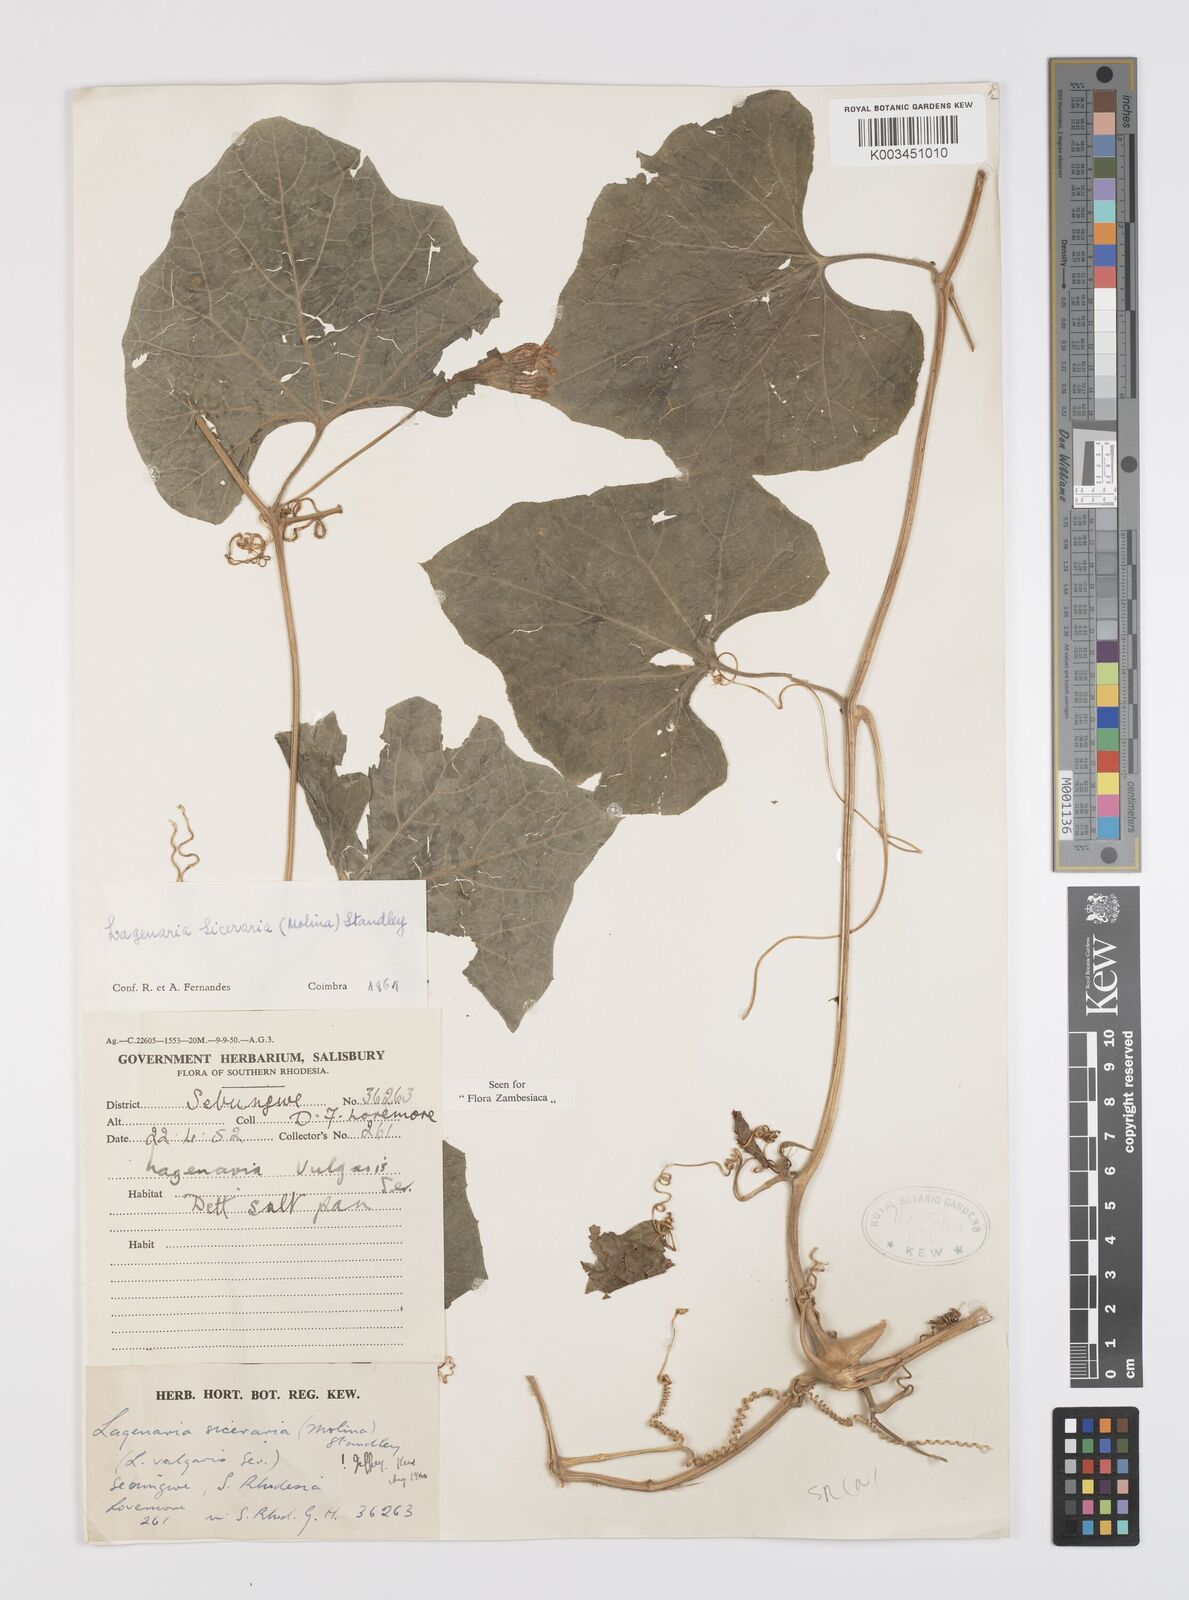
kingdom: Plantae
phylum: Tracheophyta
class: Magnoliopsida
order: Cucurbitales
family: Cucurbitaceae
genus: Lagenaria
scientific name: Lagenaria siceraria
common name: Bottle gourd
